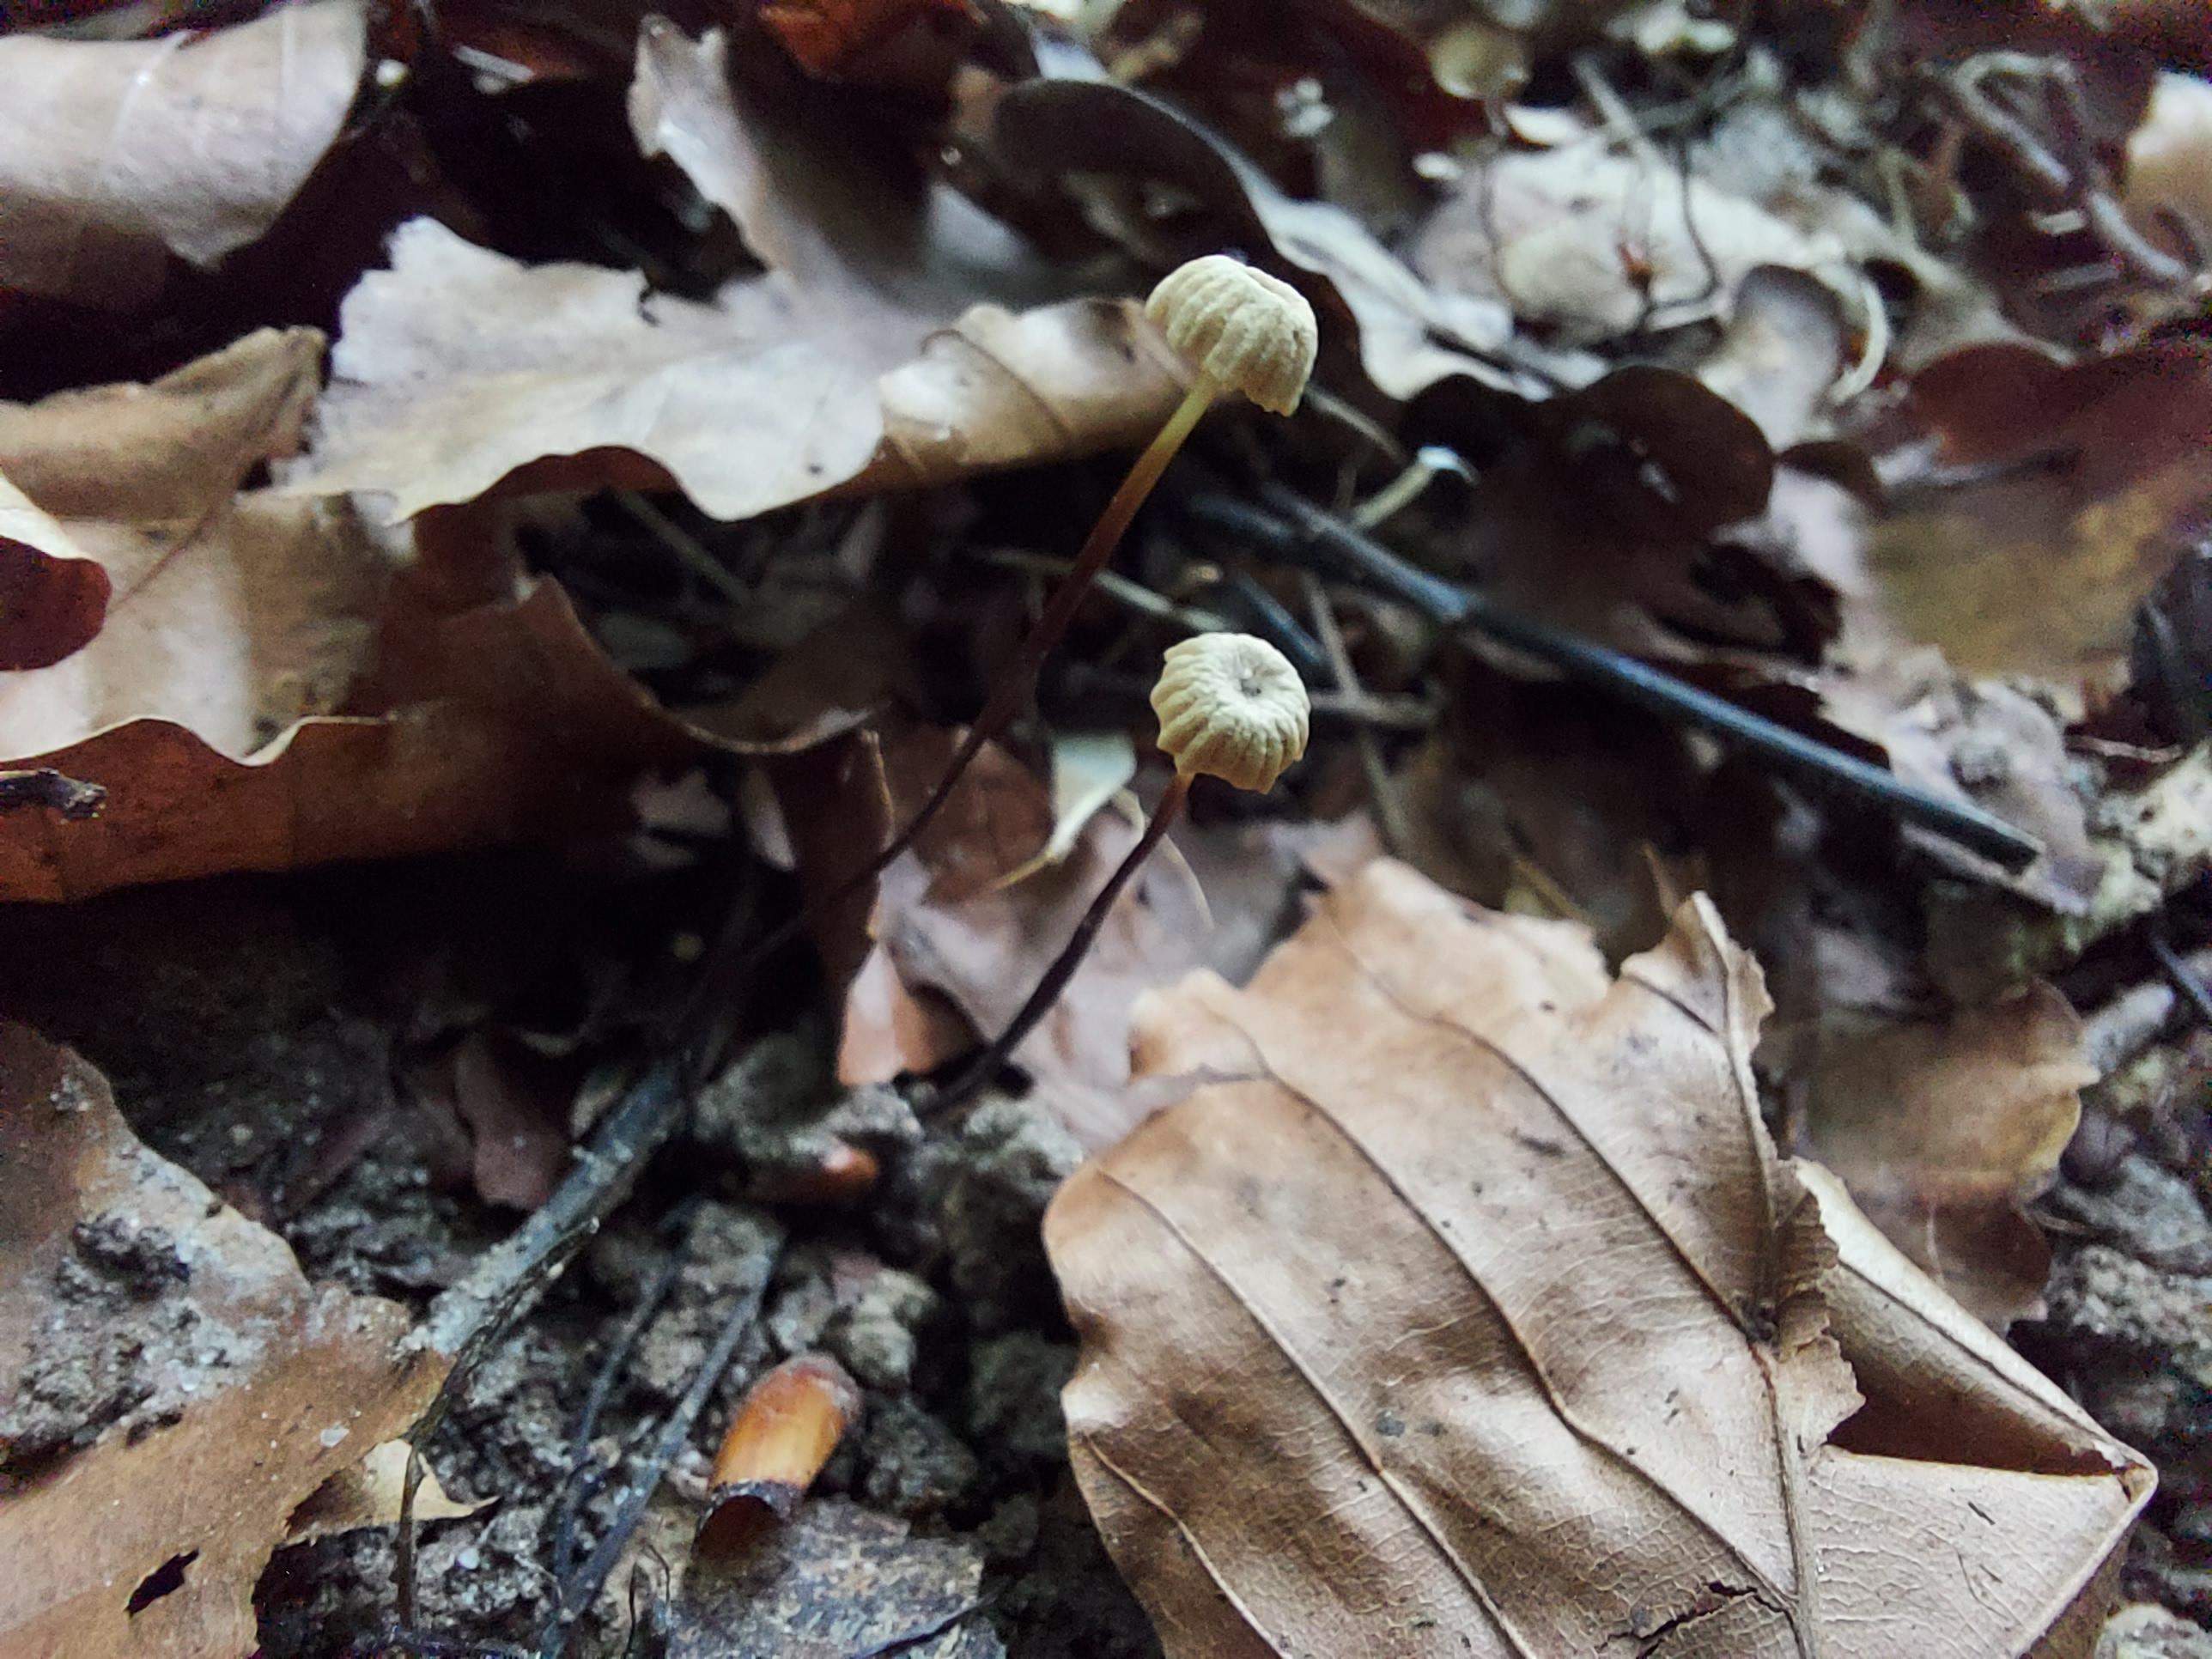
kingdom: Fungi
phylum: Basidiomycota
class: Agaricomycetes
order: Agaricales
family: Marasmiaceae
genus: Marasmius
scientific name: Marasmius rotula
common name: hjul-bruskhat
